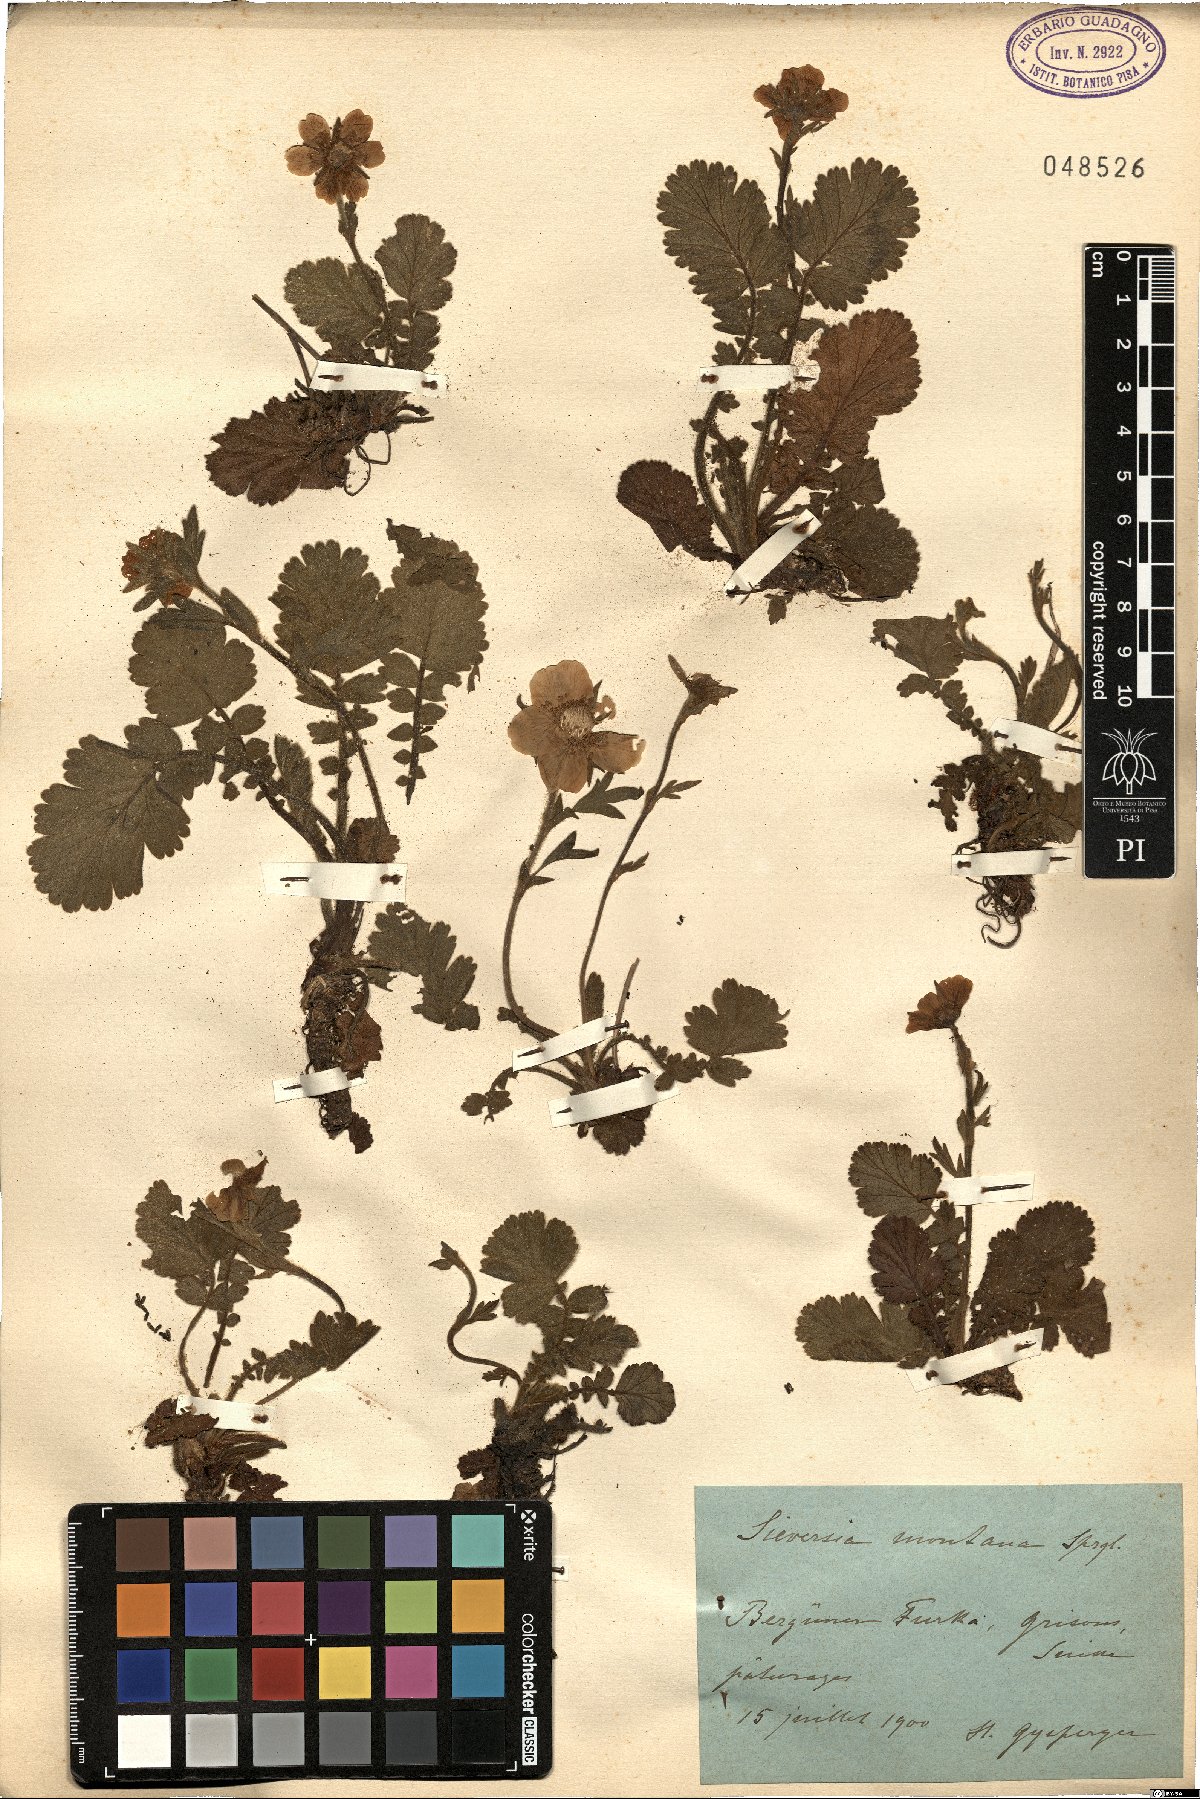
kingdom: Plantae
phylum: Tracheophyta
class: Magnoliopsida
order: Rosales
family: Rosaceae
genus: Geum
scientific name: Geum montanum
